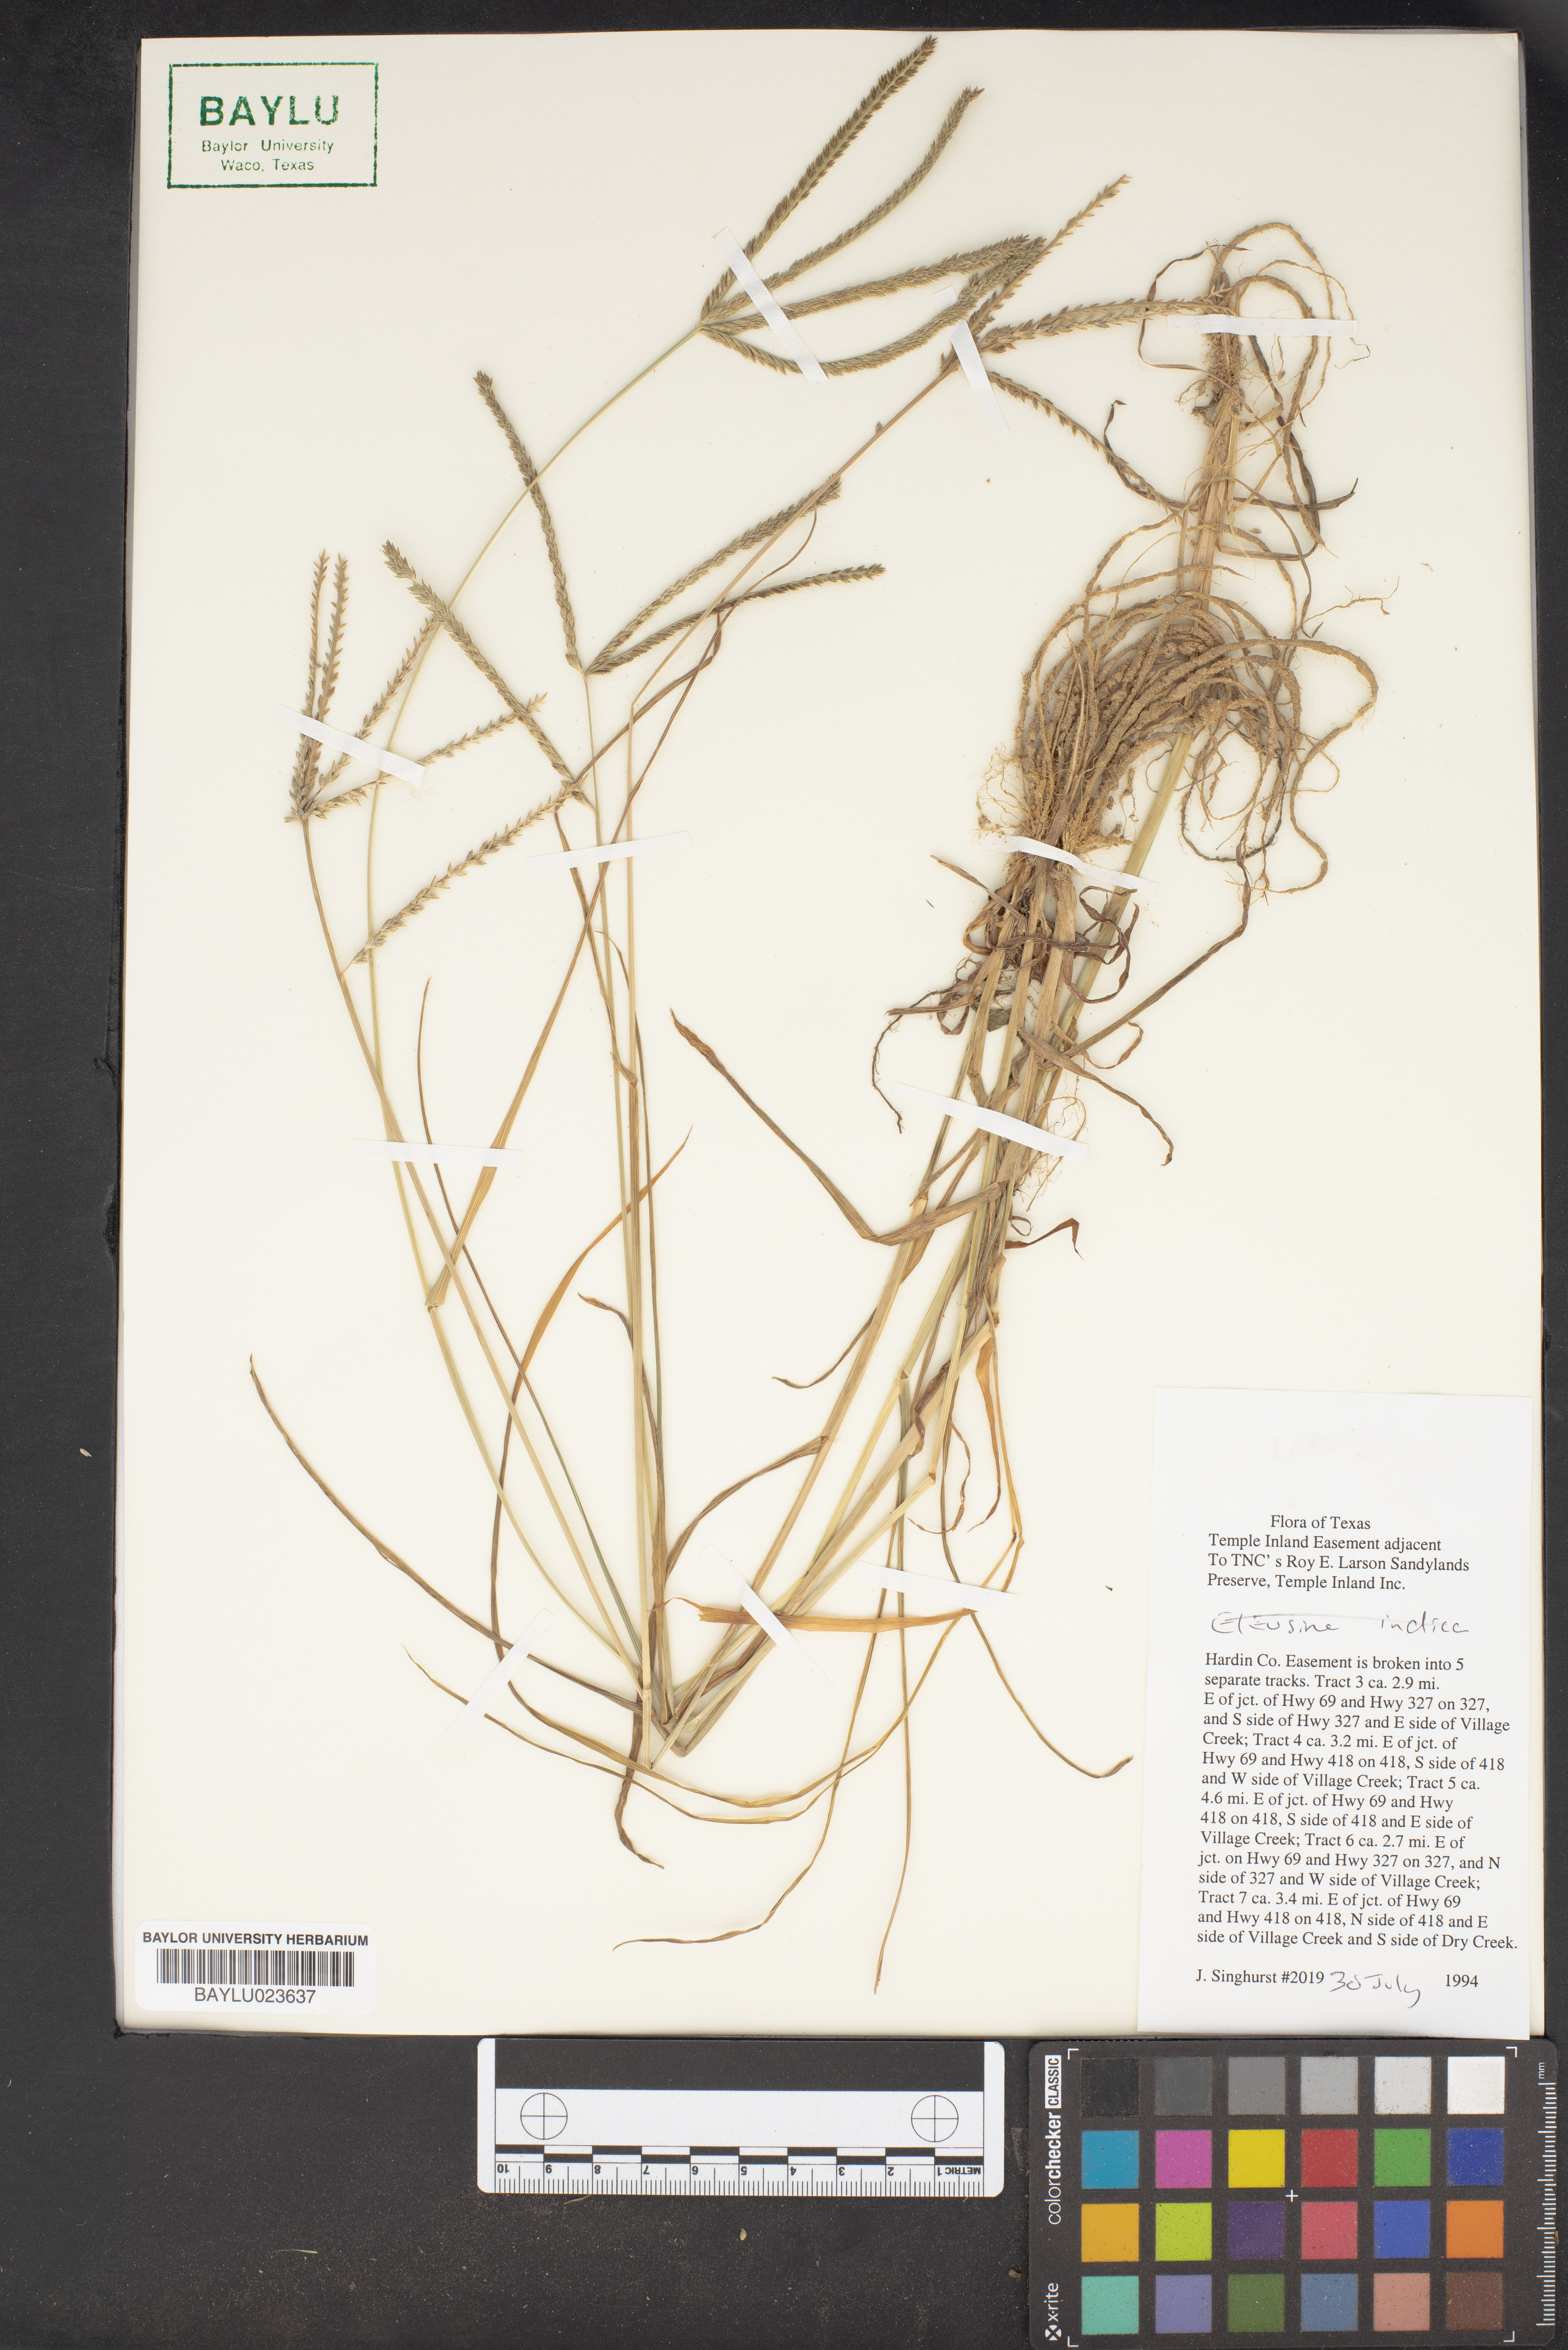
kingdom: Plantae
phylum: Tracheophyta
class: Liliopsida
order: Poales
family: Poaceae
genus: Eleusine
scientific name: Eleusine indica
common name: Yard-grass
